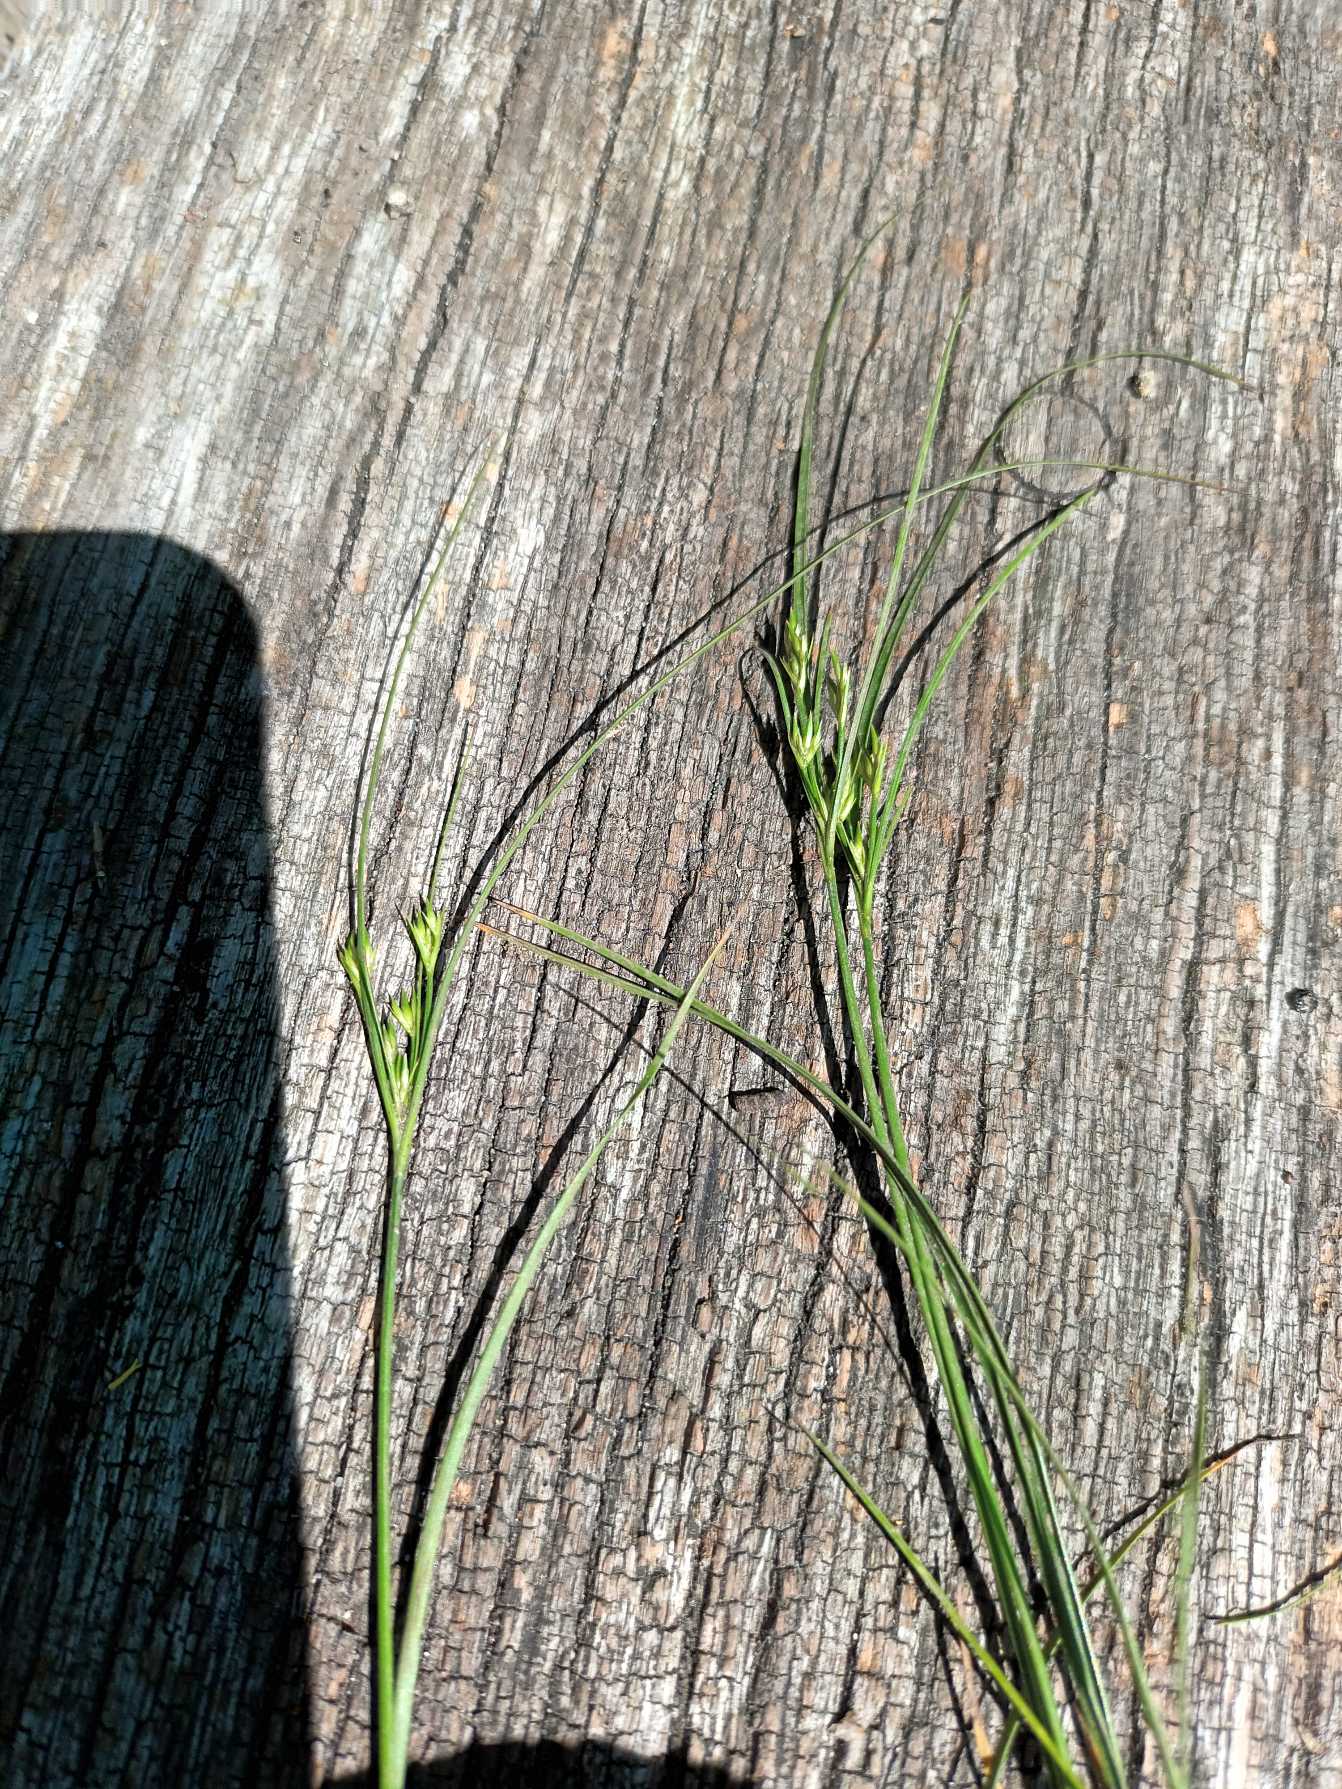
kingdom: Plantae
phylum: Tracheophyta
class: Liliopsida
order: Poales
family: Juncaceae
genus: Juncus
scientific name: Juncus tenuis
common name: Tue-siv
